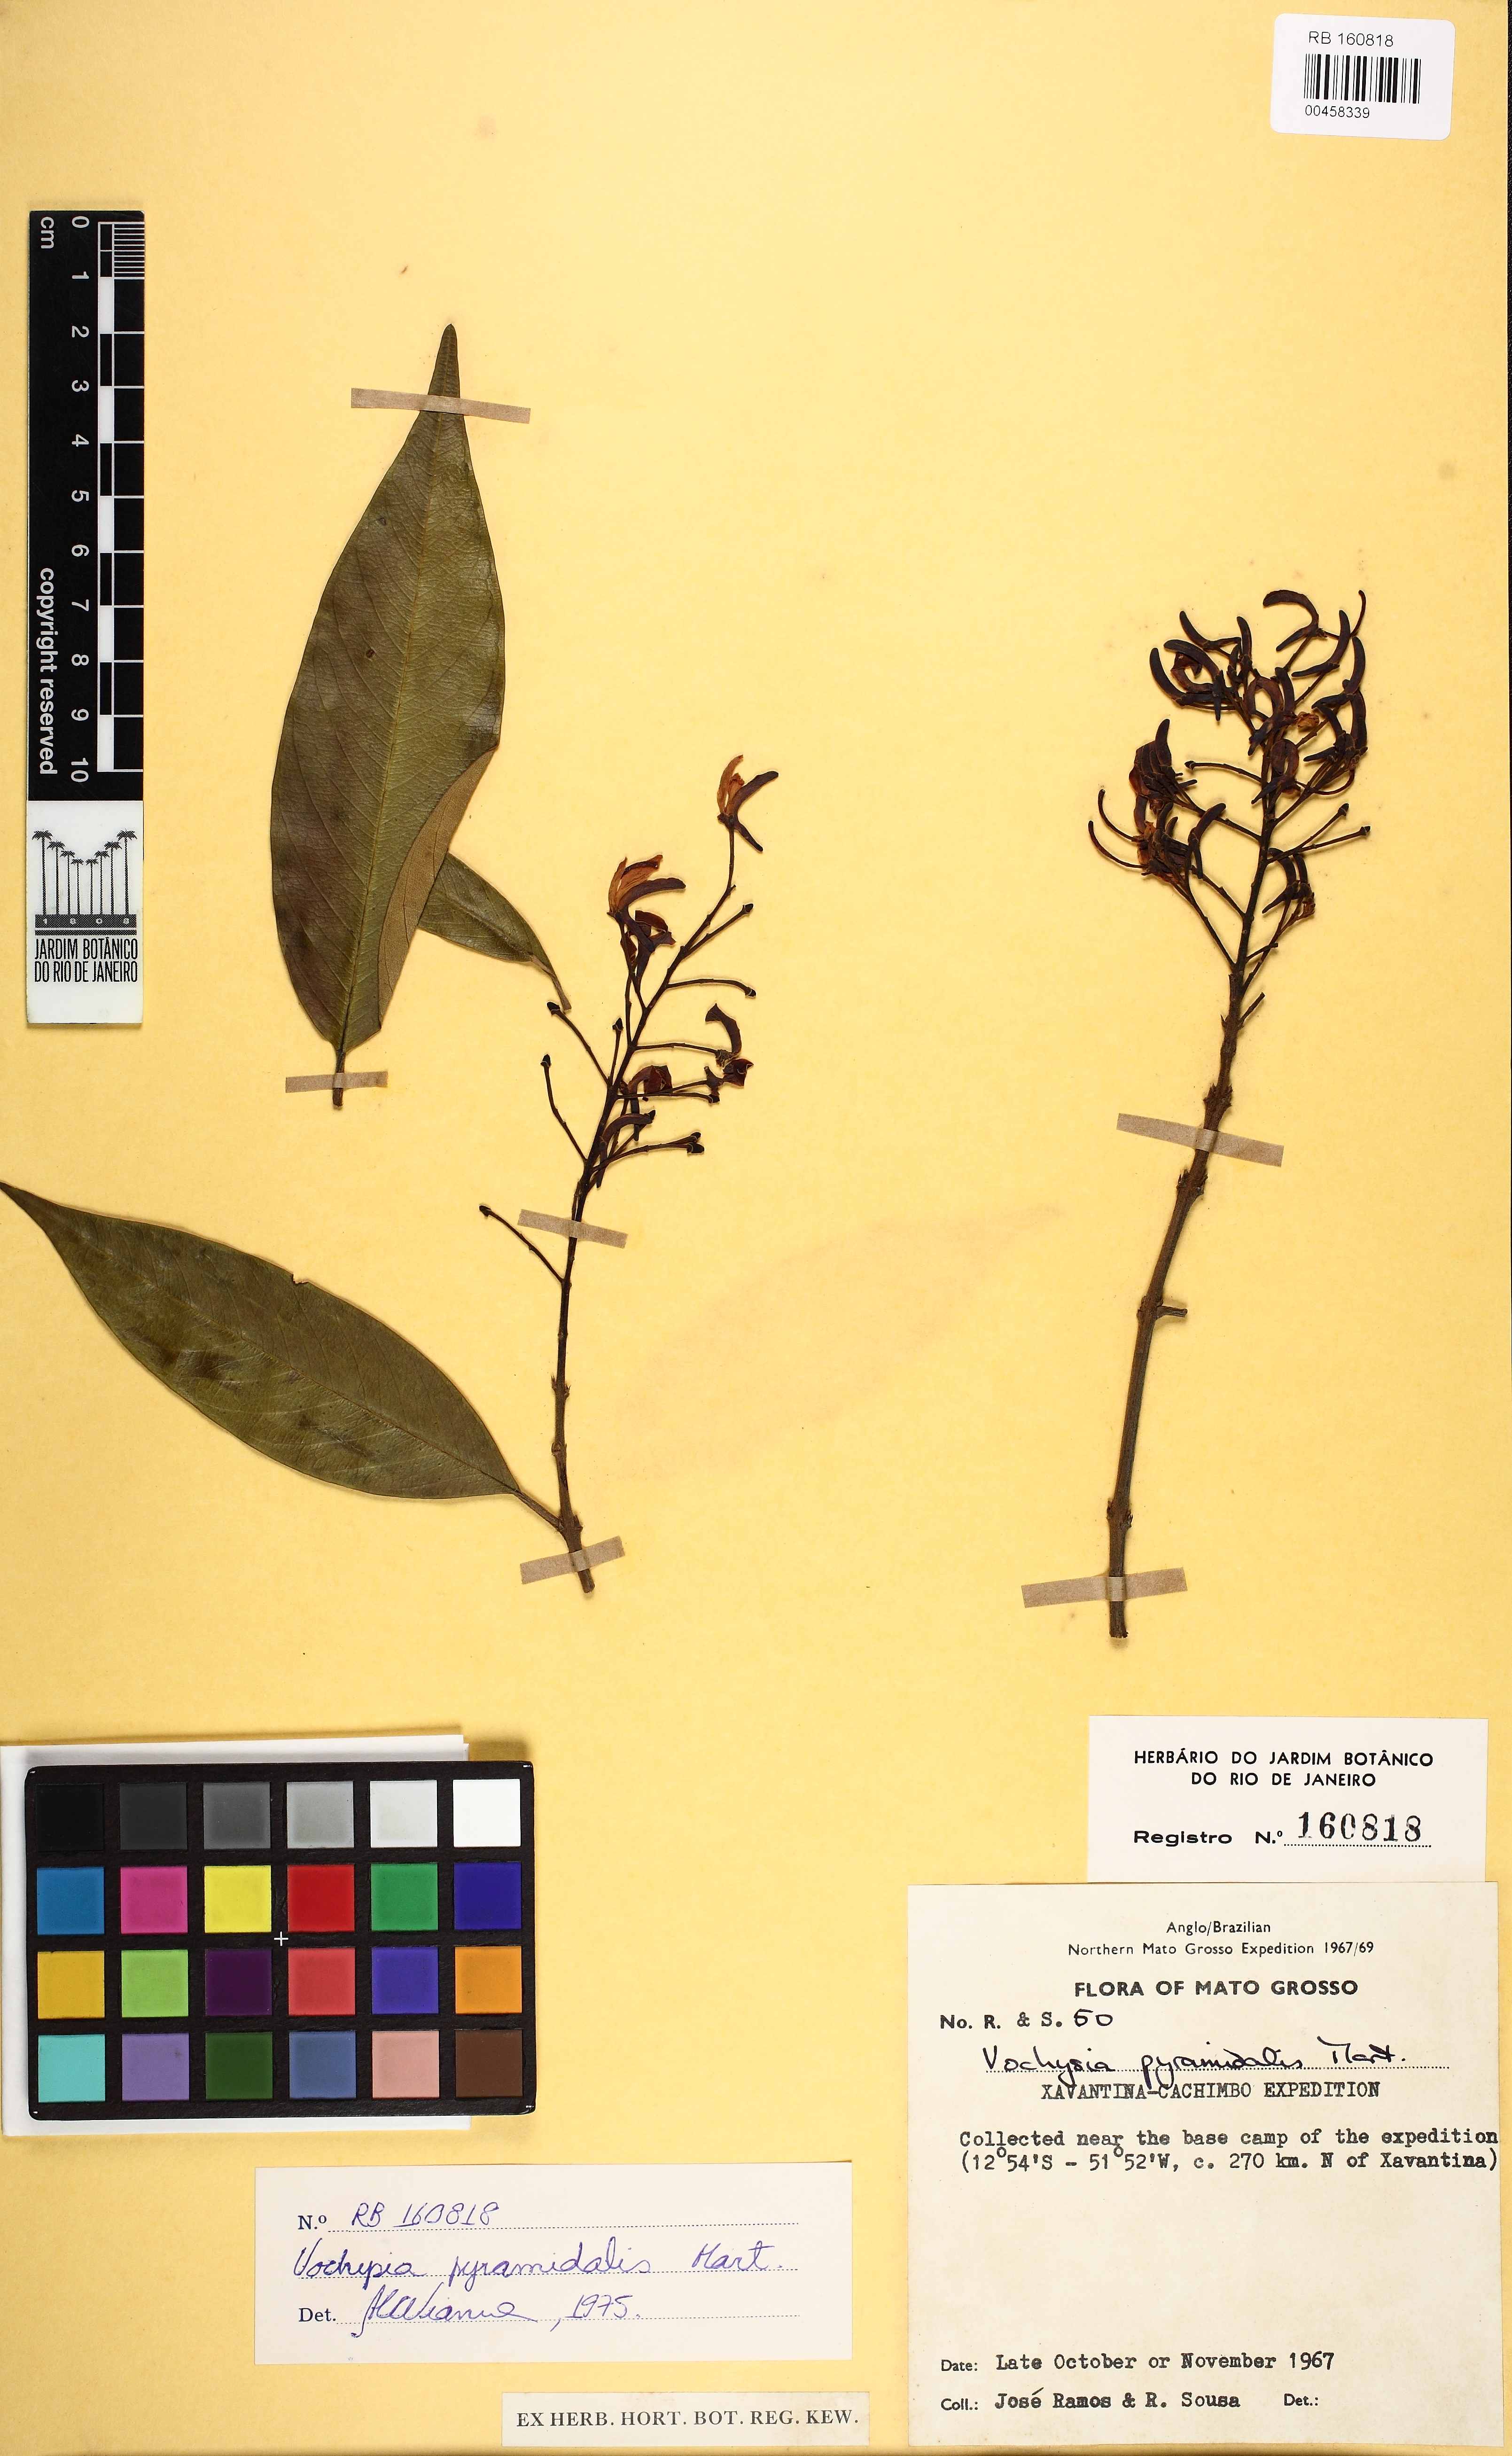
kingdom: Plantae
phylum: Tracheophyta
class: Magnoliopsida
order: Myrtales
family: Vochysiaceae
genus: Vochysia
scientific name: Vochysia pyramidalis
